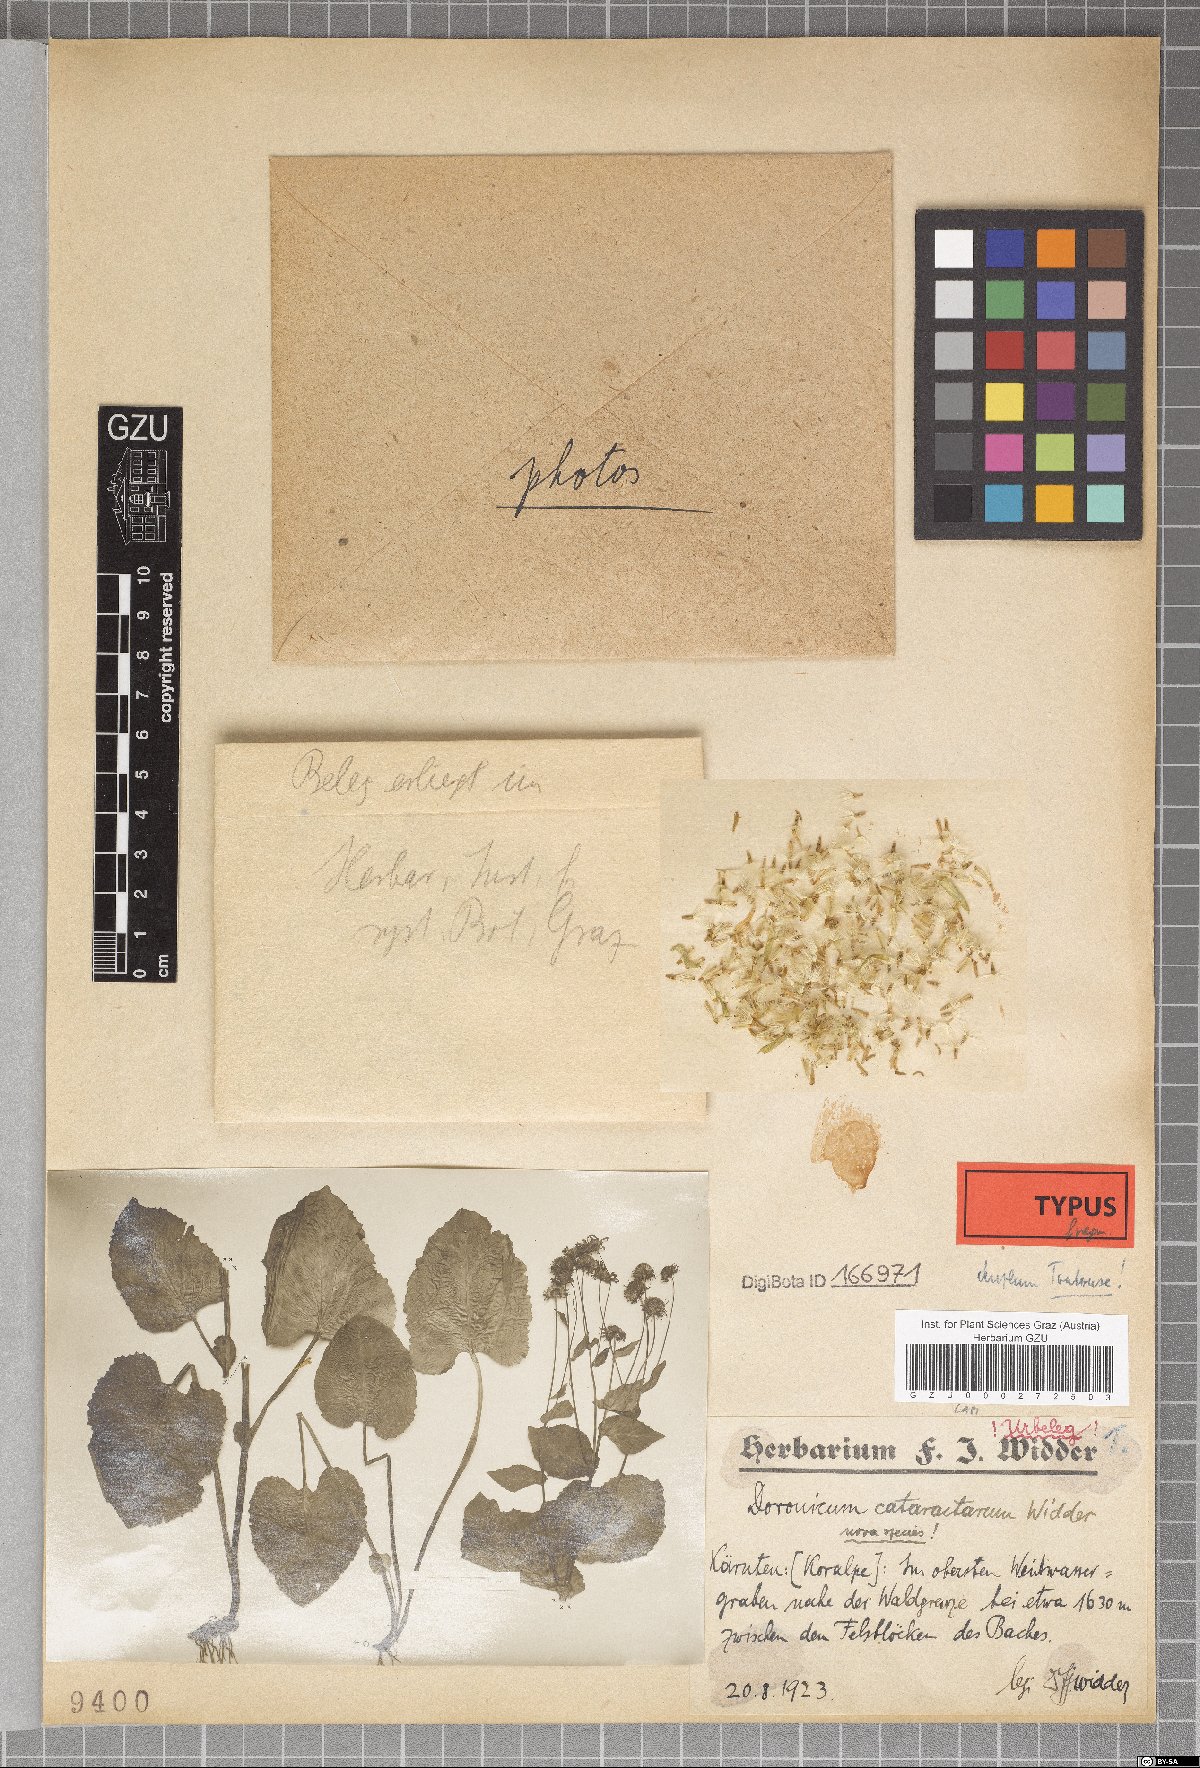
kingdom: Plantae
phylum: Tracheophyta
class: Magnoliopsida
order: Asterales
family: Asteraceae
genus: Doronicum
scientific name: Doronicum cataractarum
